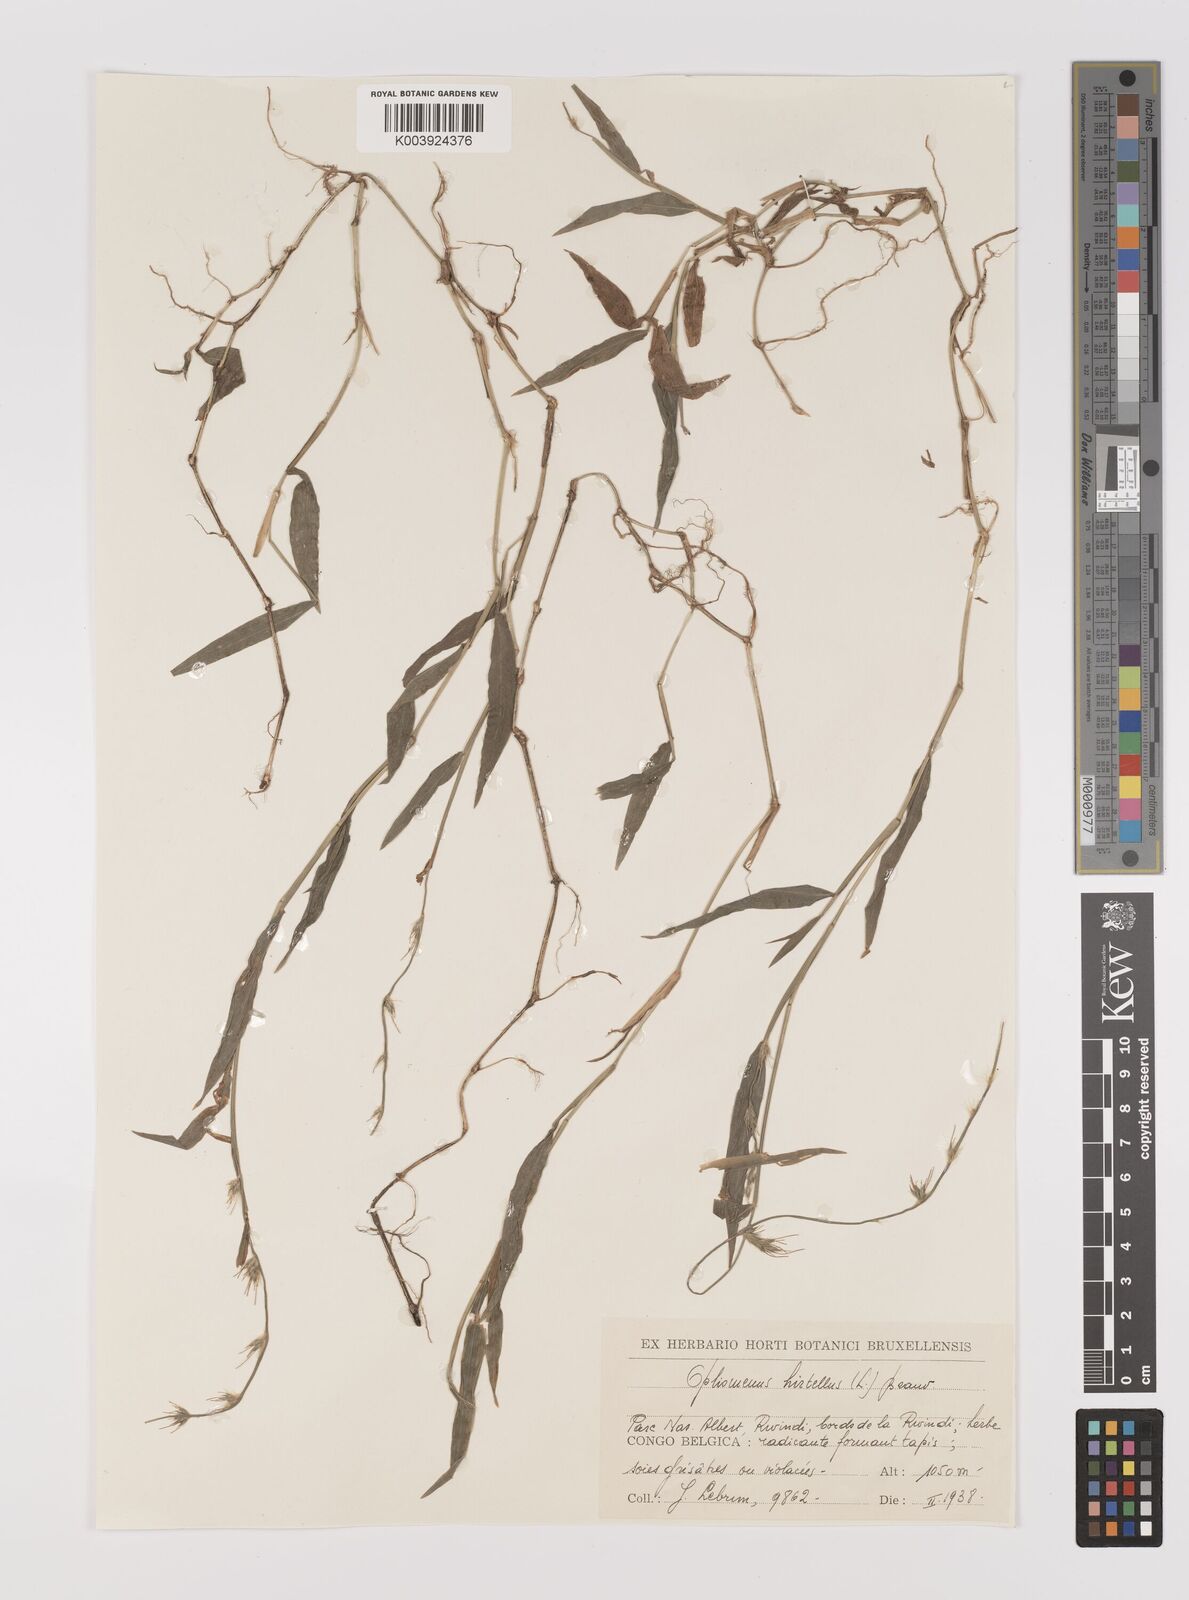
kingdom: Plantae
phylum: Tracheophyta
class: Liliopsida
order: Poales
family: Poaceae
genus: Oplismenus
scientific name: Oplismenus hirtellus
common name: Basketgrass
